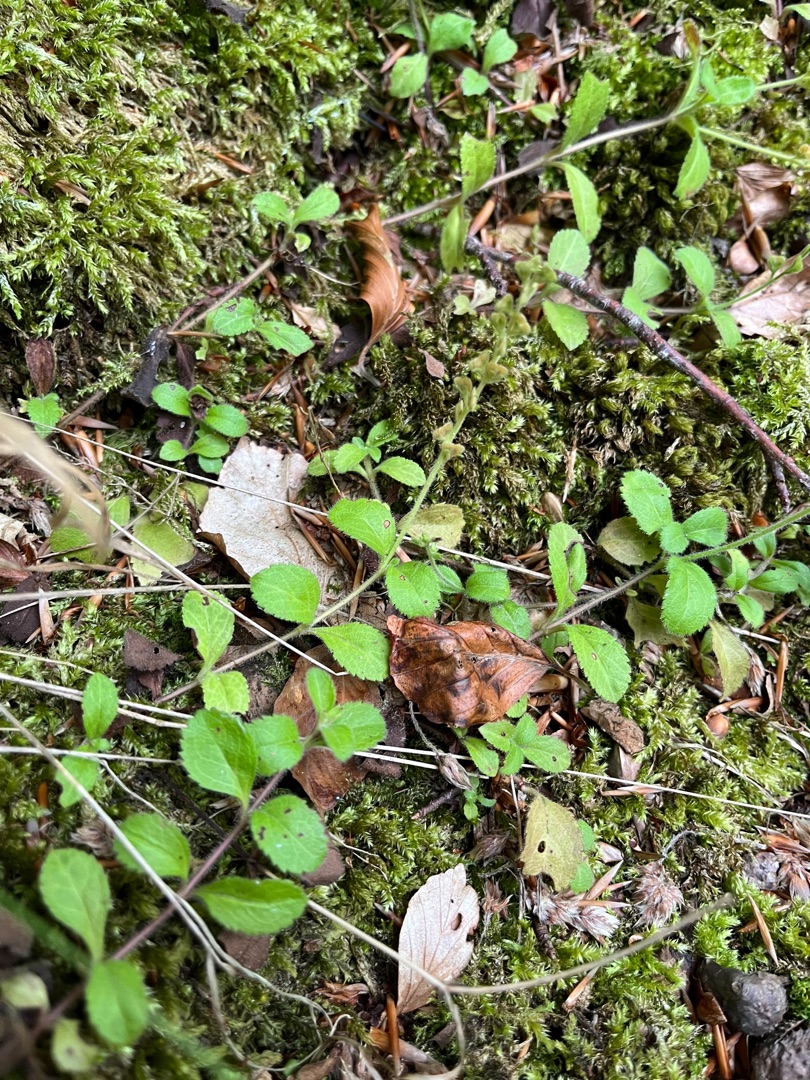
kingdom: Plantae
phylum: Tracheophyta
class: Magnoliopsida
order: Lamiales
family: Plantaginaceae
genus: Veronica
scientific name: Veronica officinalis
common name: Læge-ærenpris
